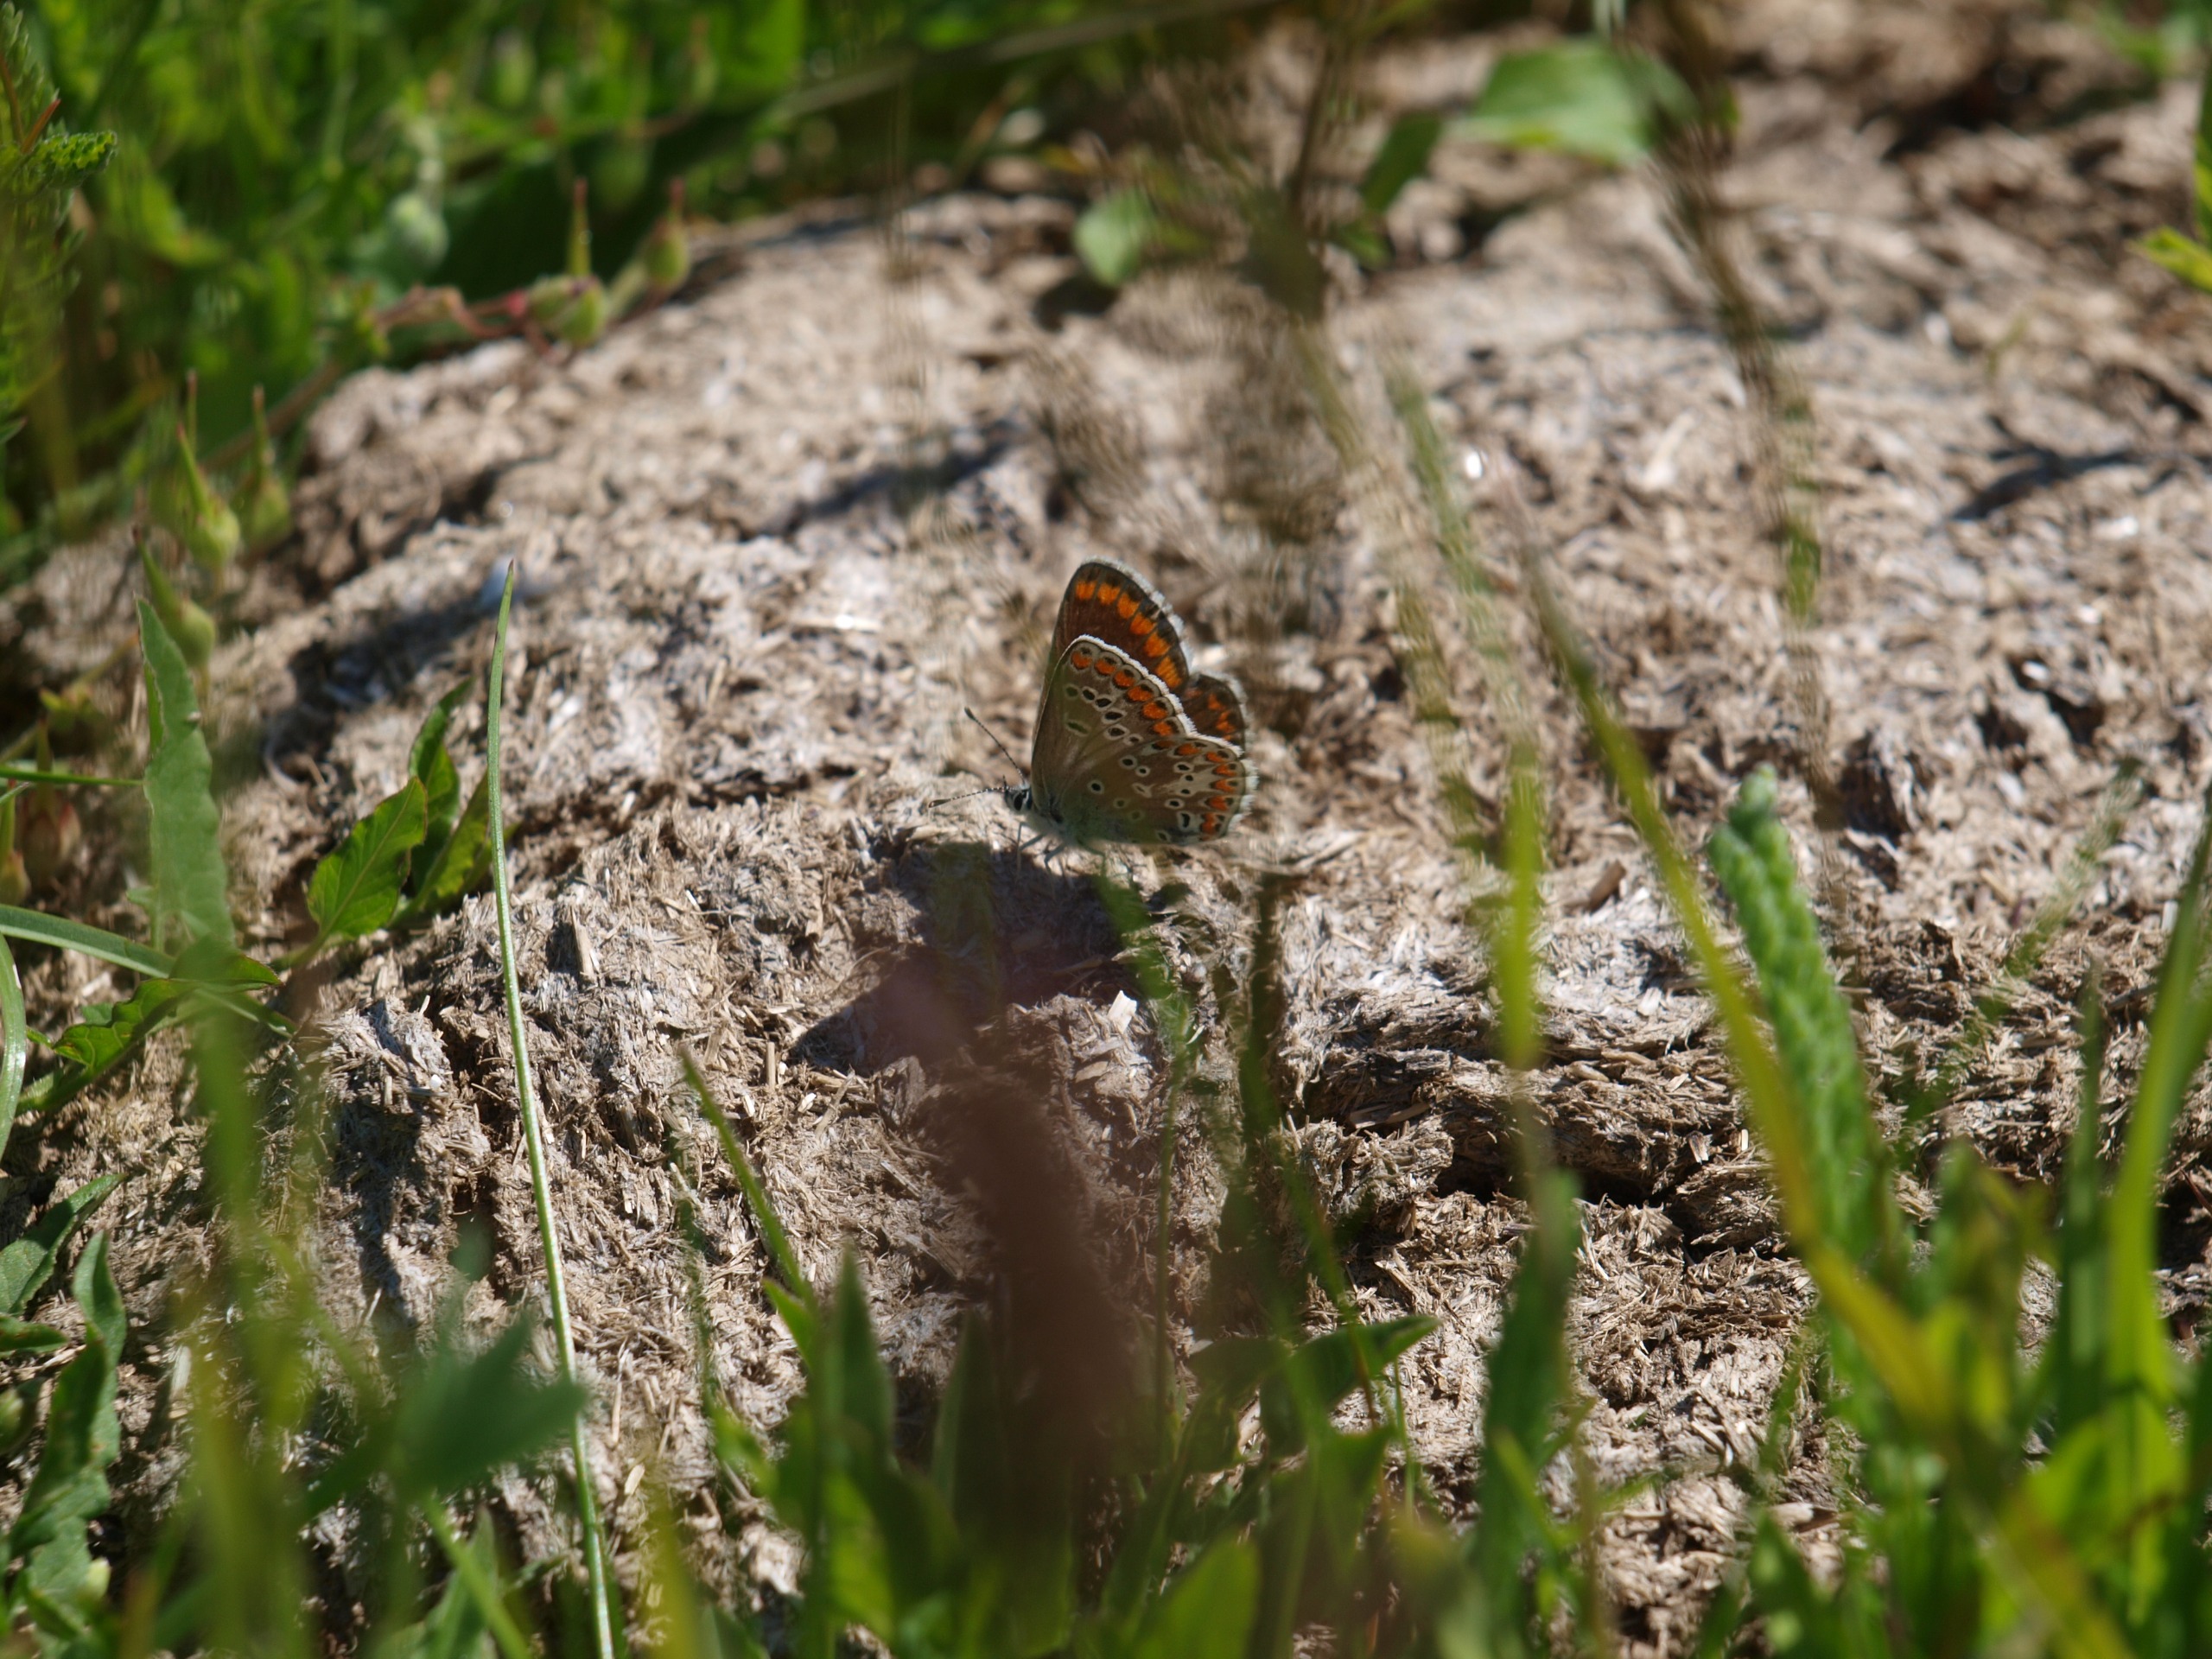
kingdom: Animalia
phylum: Arthropoda
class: Insecta
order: Lepidoptera
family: Lycaenidae
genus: Aricia
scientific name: Aricia agestis
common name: Rødplettet blåfugl
